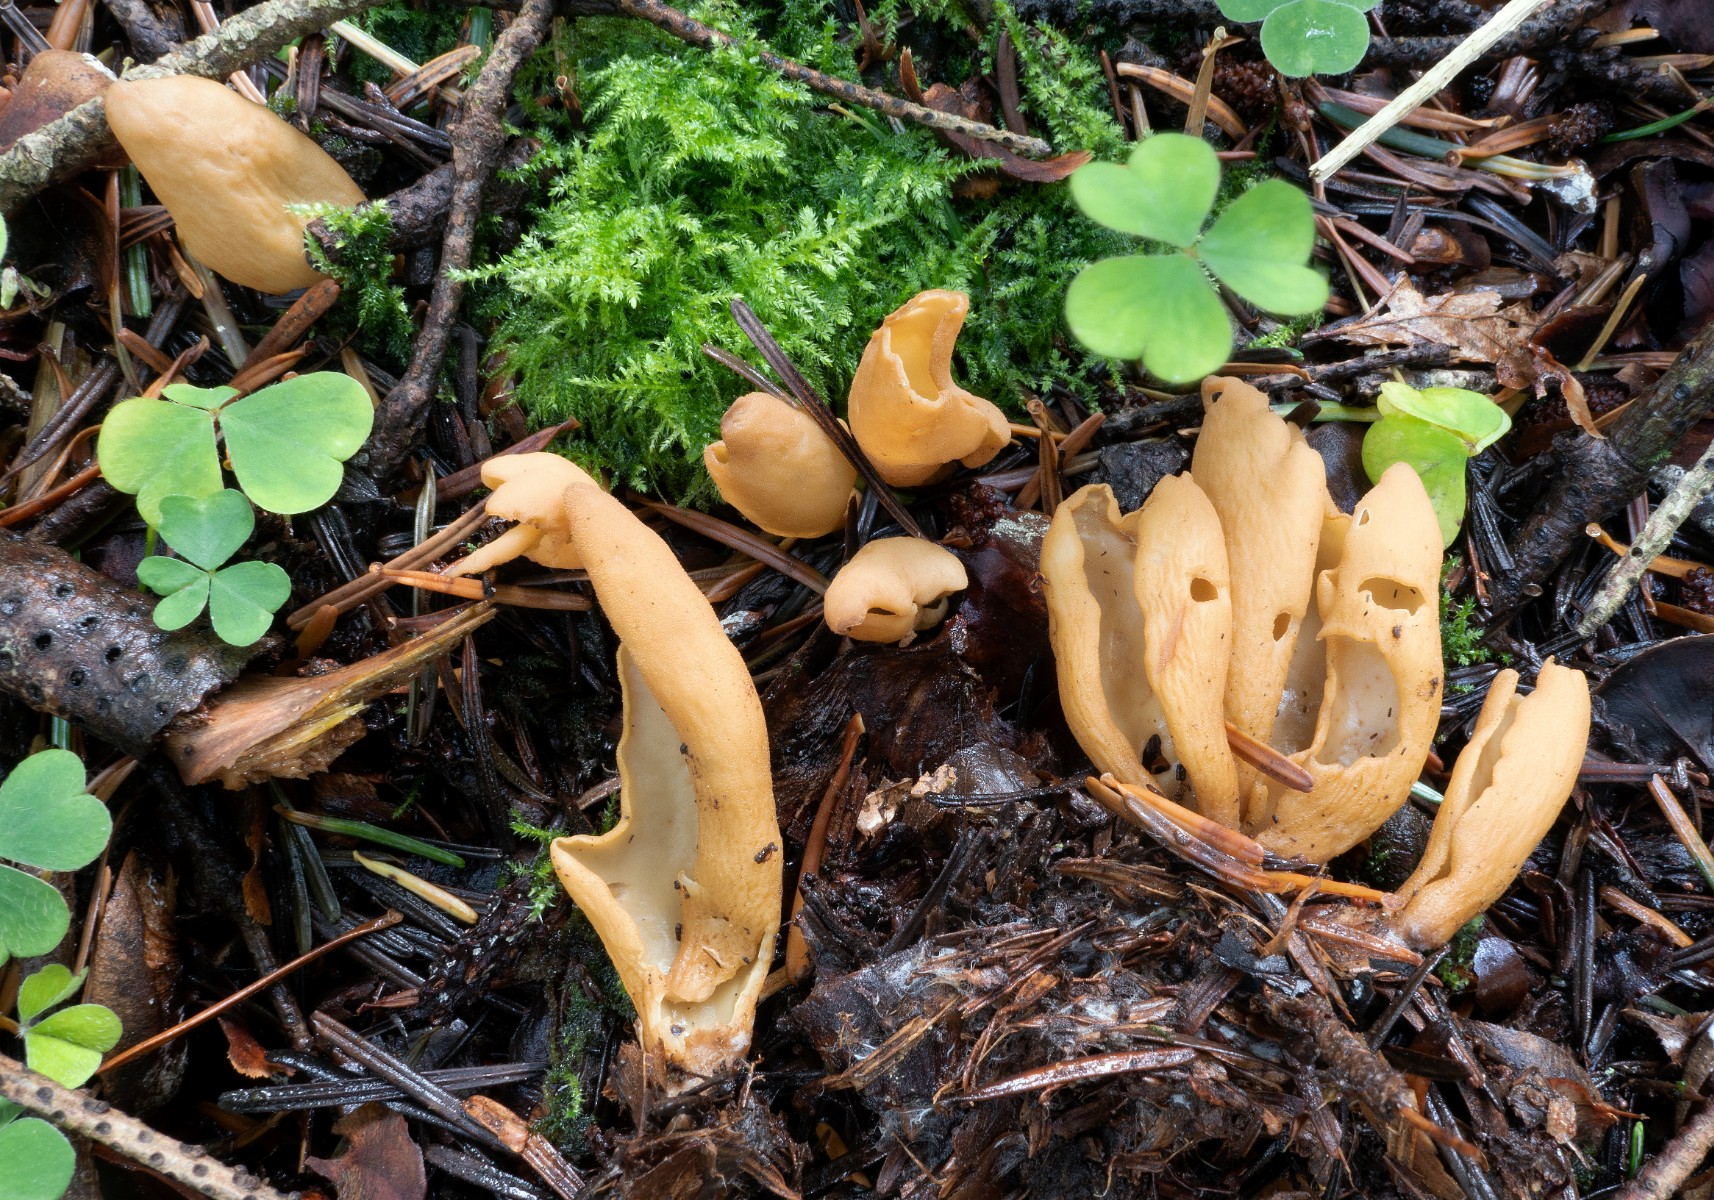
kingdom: Fungi
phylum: Ascomycota
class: Pezizomycetes
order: Pezizales
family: Otideaceae
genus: Otidea
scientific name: Otidea nannfeldtii
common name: jolle-ørebæger
